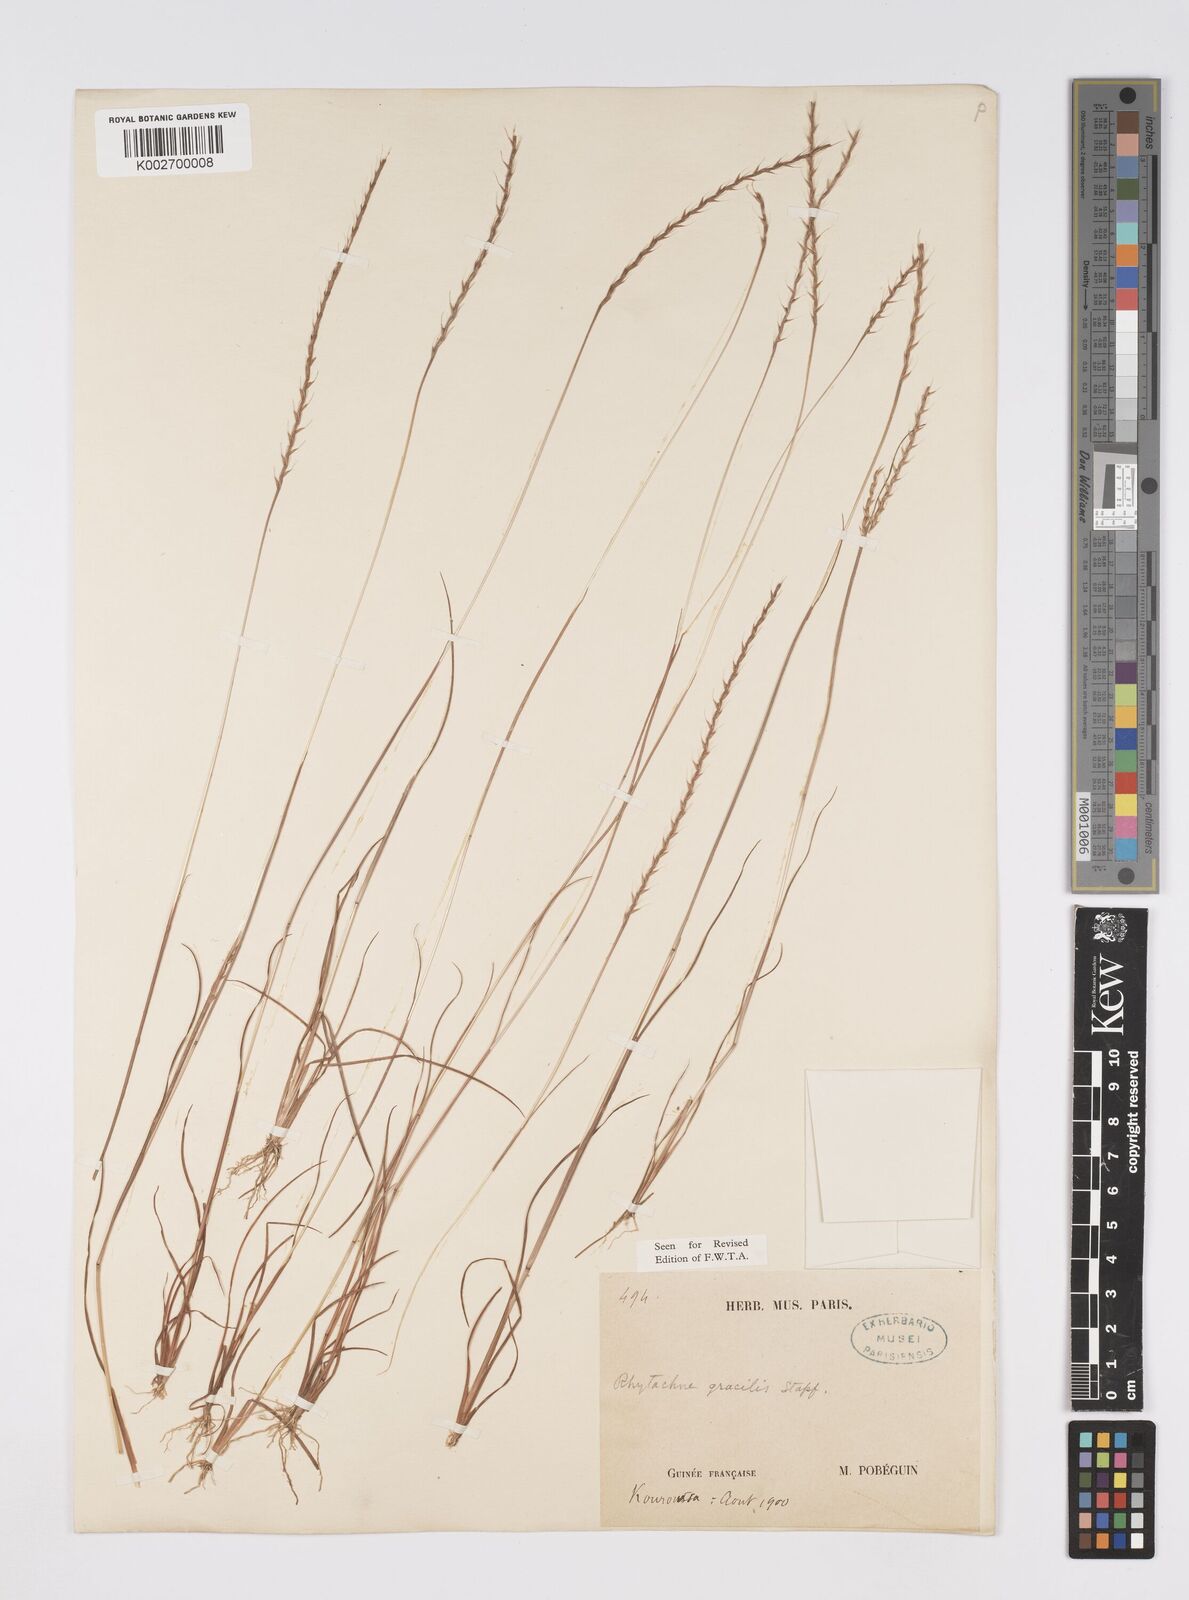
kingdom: Plantae
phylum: Tracheophyta
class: Liliopsida
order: Poales
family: Poaceae
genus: Rhytachne
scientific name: Rhytachne gracilis
